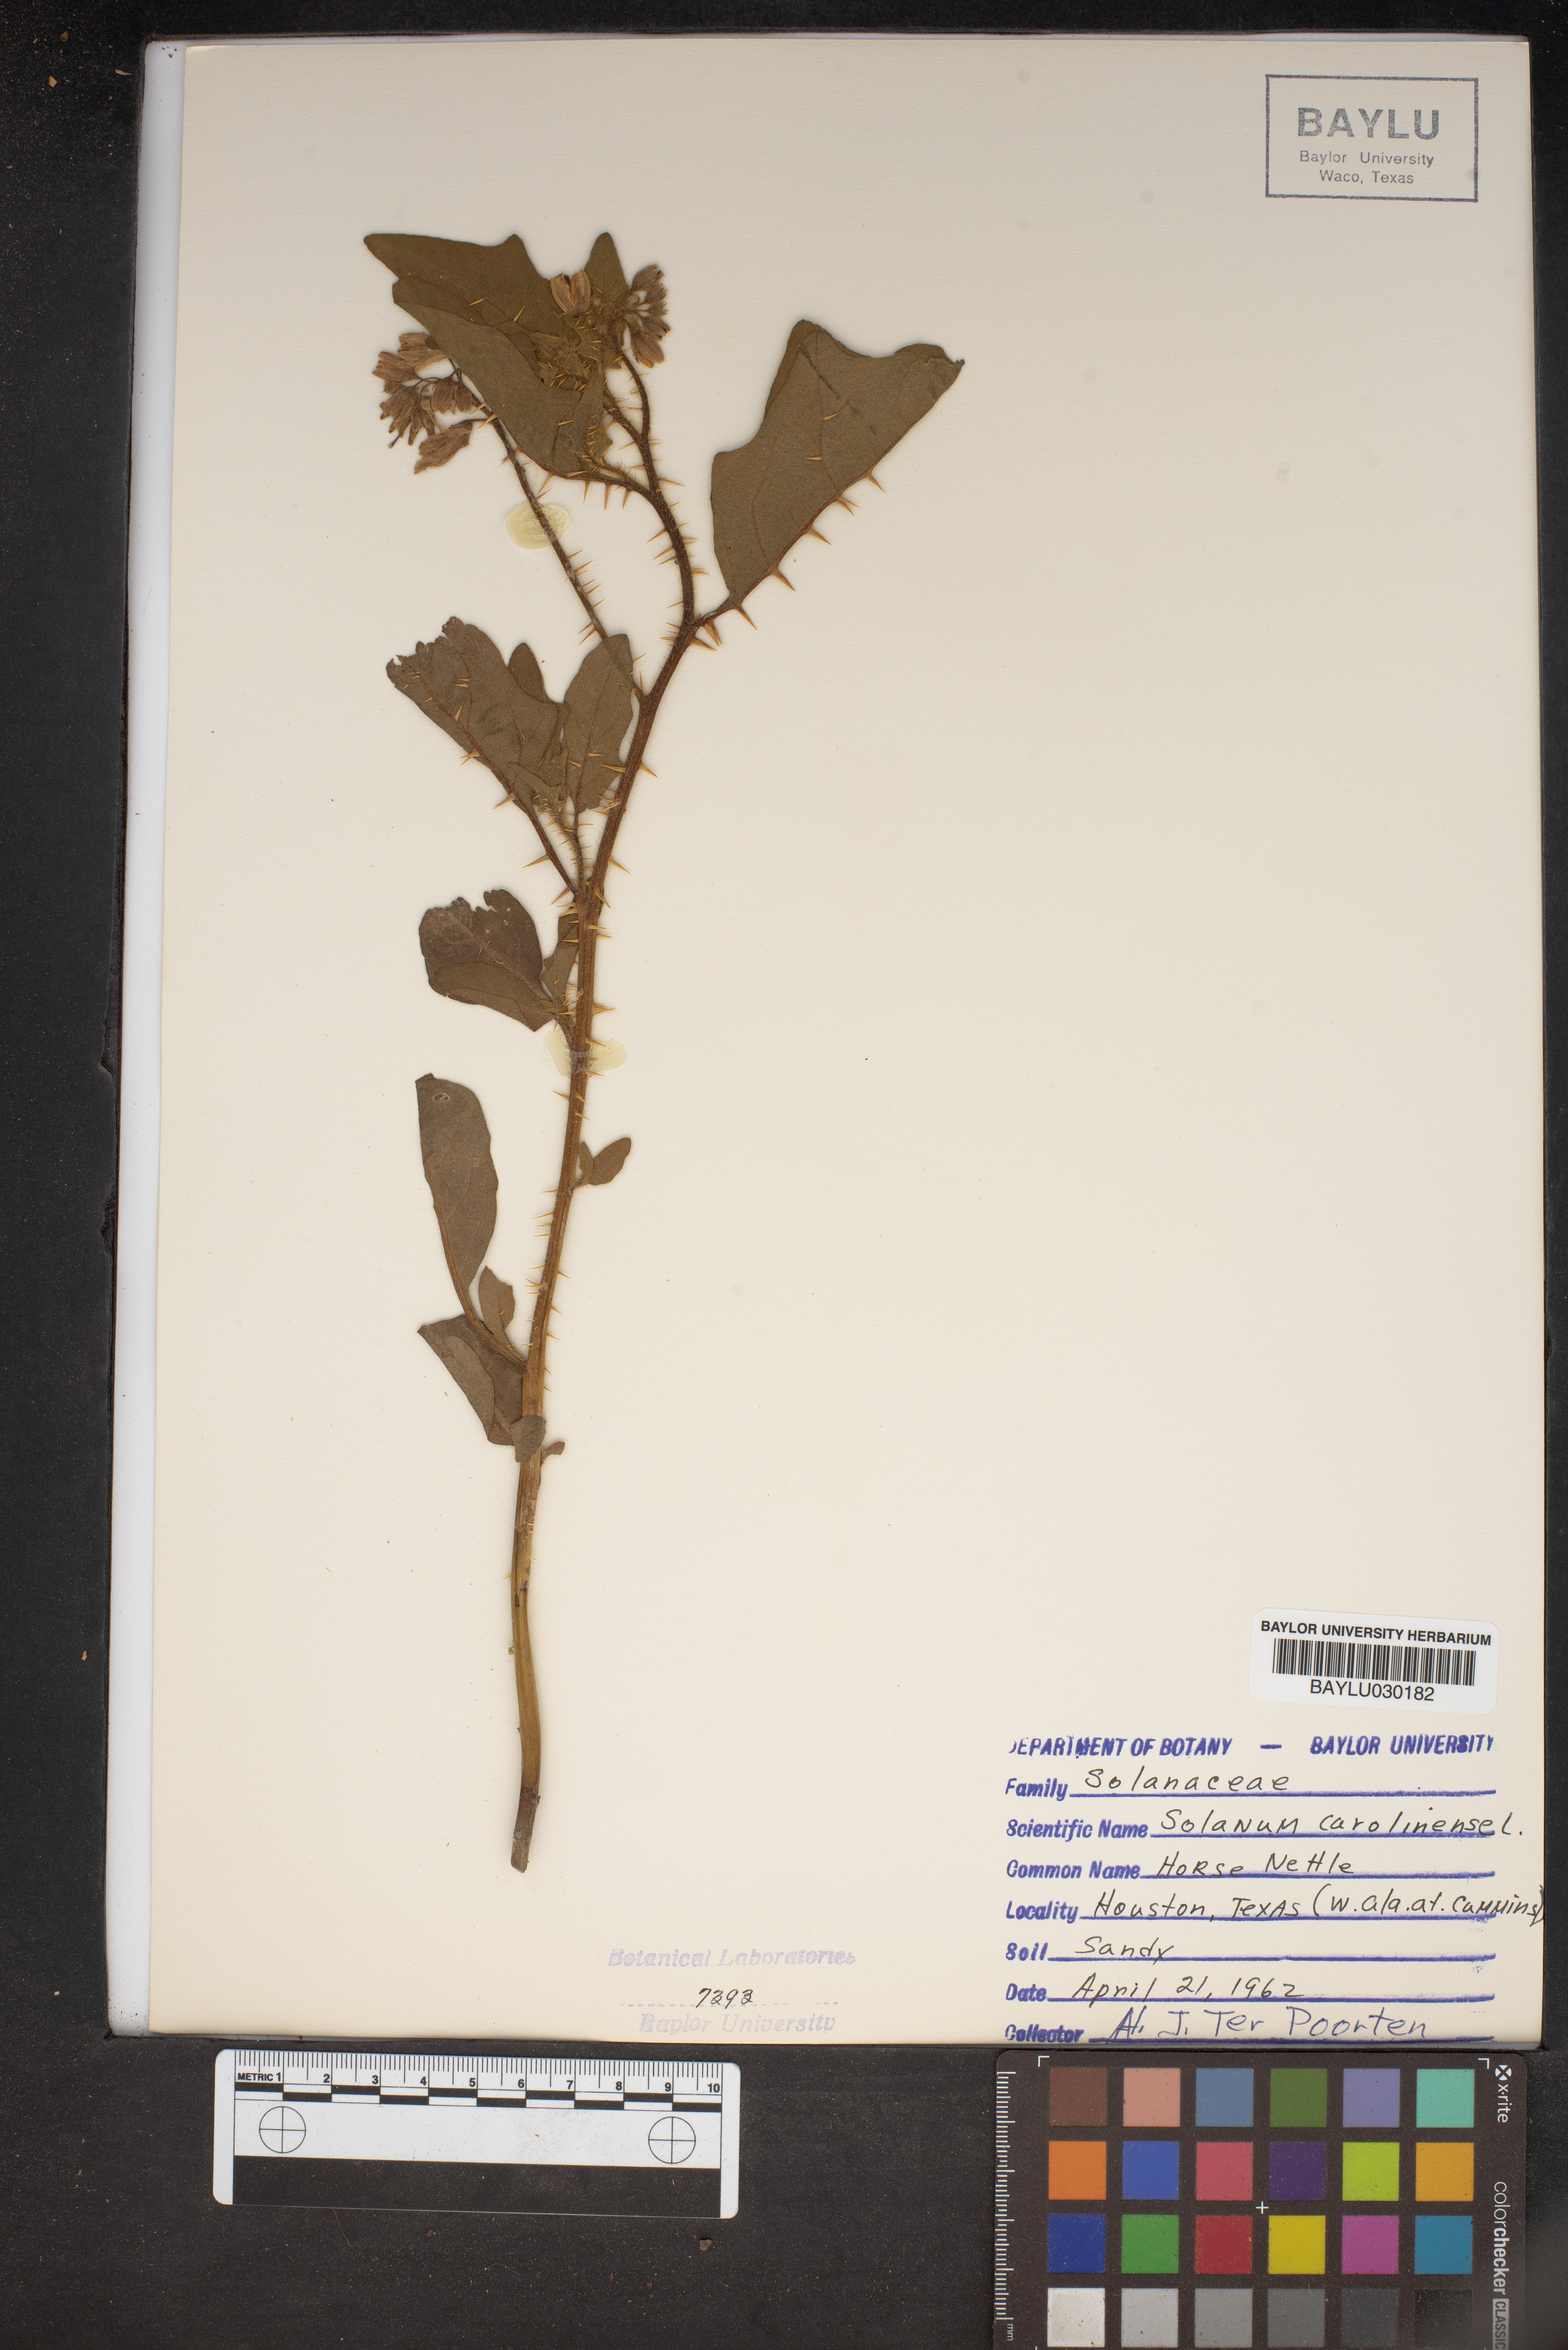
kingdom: Plantae
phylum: Tracheophyta
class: Magnoliopsida
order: Solanales
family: Solanaceae
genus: Solanum
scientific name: Solanum carolinense
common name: Horse-nettle
